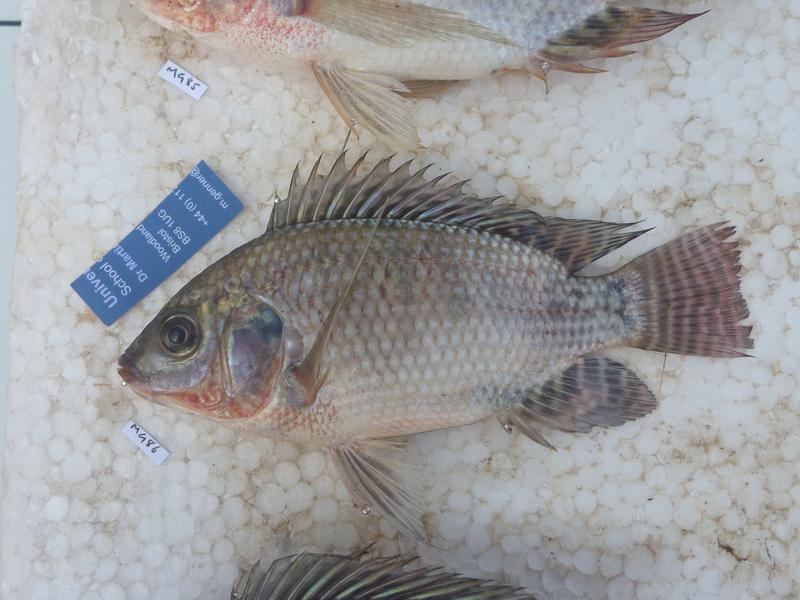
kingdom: Animalia
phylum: Chordata
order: Perciformes
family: Cichlidae
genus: Oreochromis
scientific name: Oreochromis niloticus
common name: Nile tilapia
